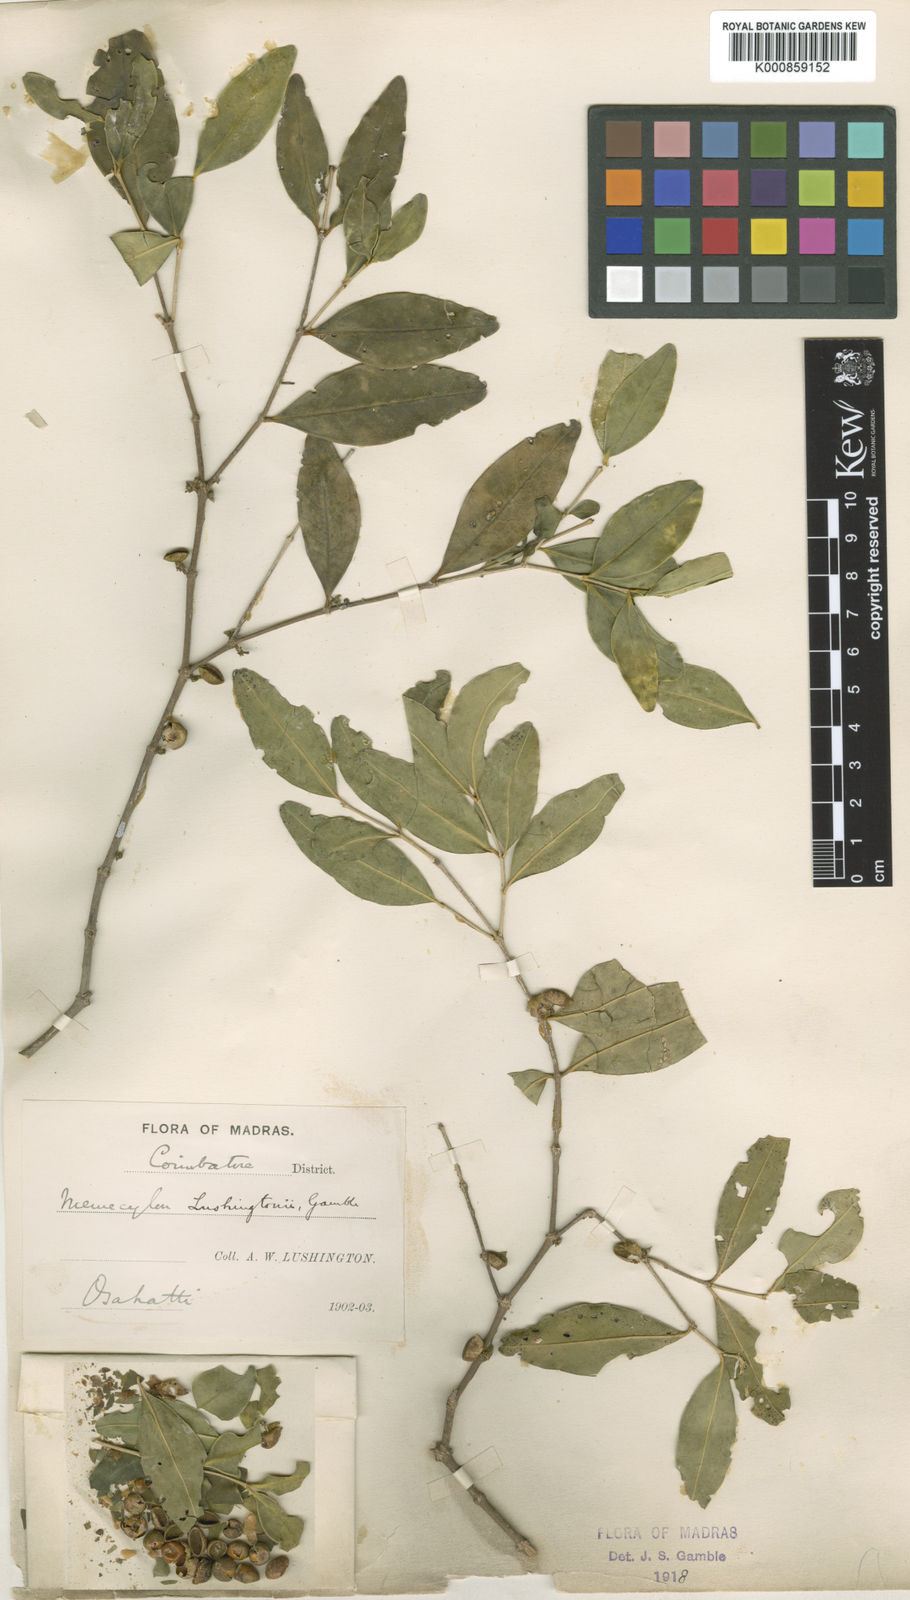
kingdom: Plantae
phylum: Tracheophyta
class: Magnoliopsida
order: Myrtales
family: Melastomataceae
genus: Memecylon
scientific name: Memecylon lushingtonii
